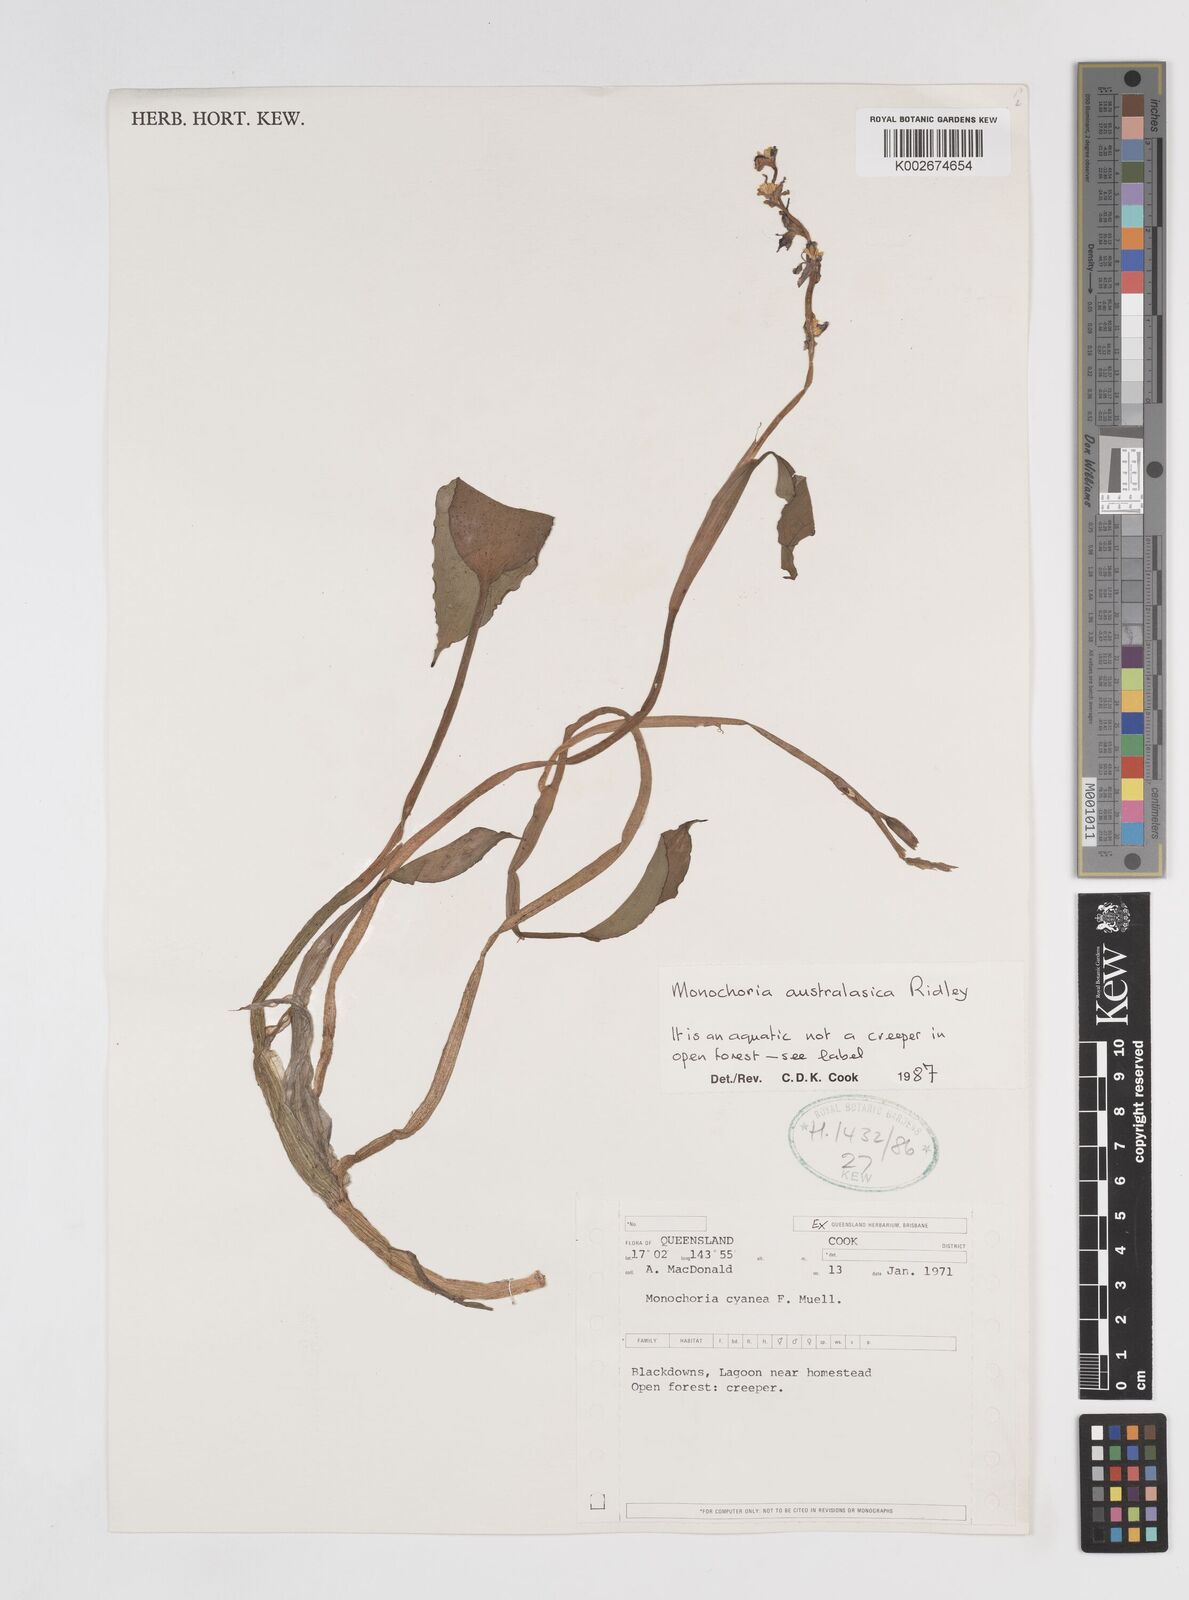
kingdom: Plantae
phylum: Tracheophyta
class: Liliopsida
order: Commelinales
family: Pontederiaceae
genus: Pontederia
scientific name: Pontederia australasica
